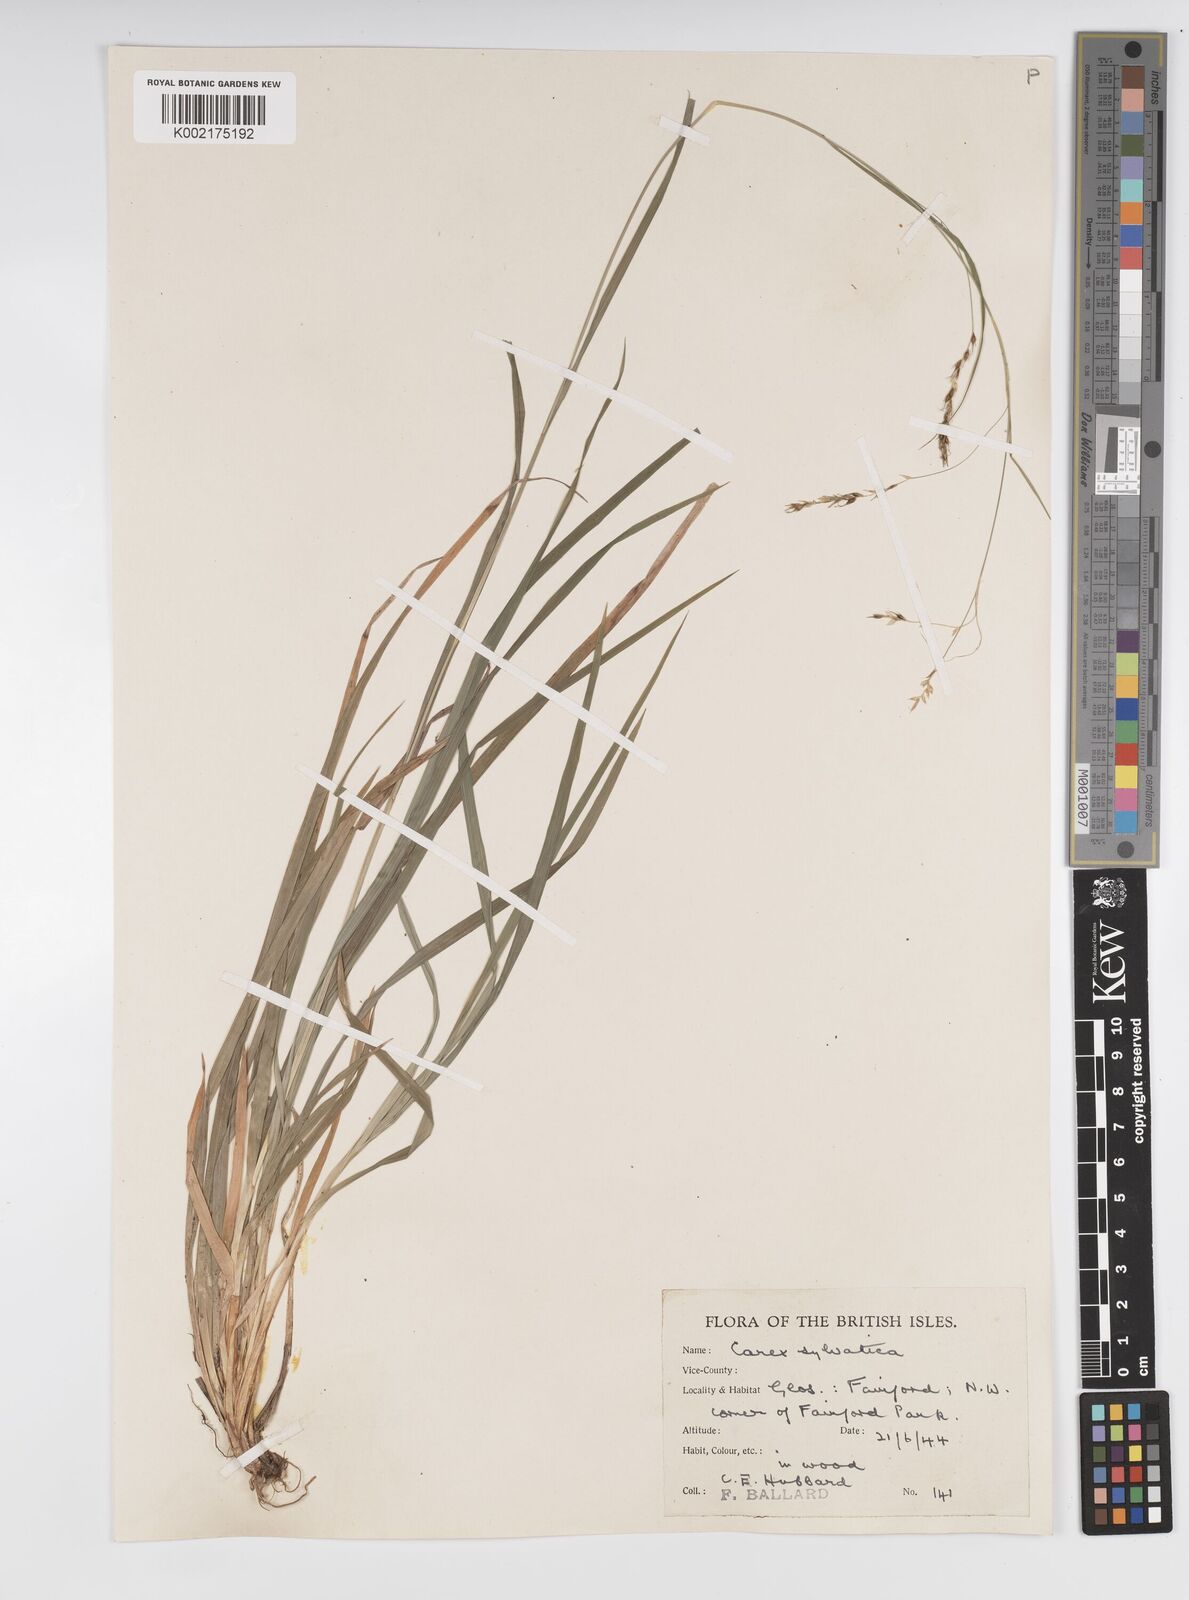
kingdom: Plantae
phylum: Tracheophyta
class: Liliopsida
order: Poales
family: Cyperaceae
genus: Carex
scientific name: Carex sylvatica
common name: Wood-sedge
